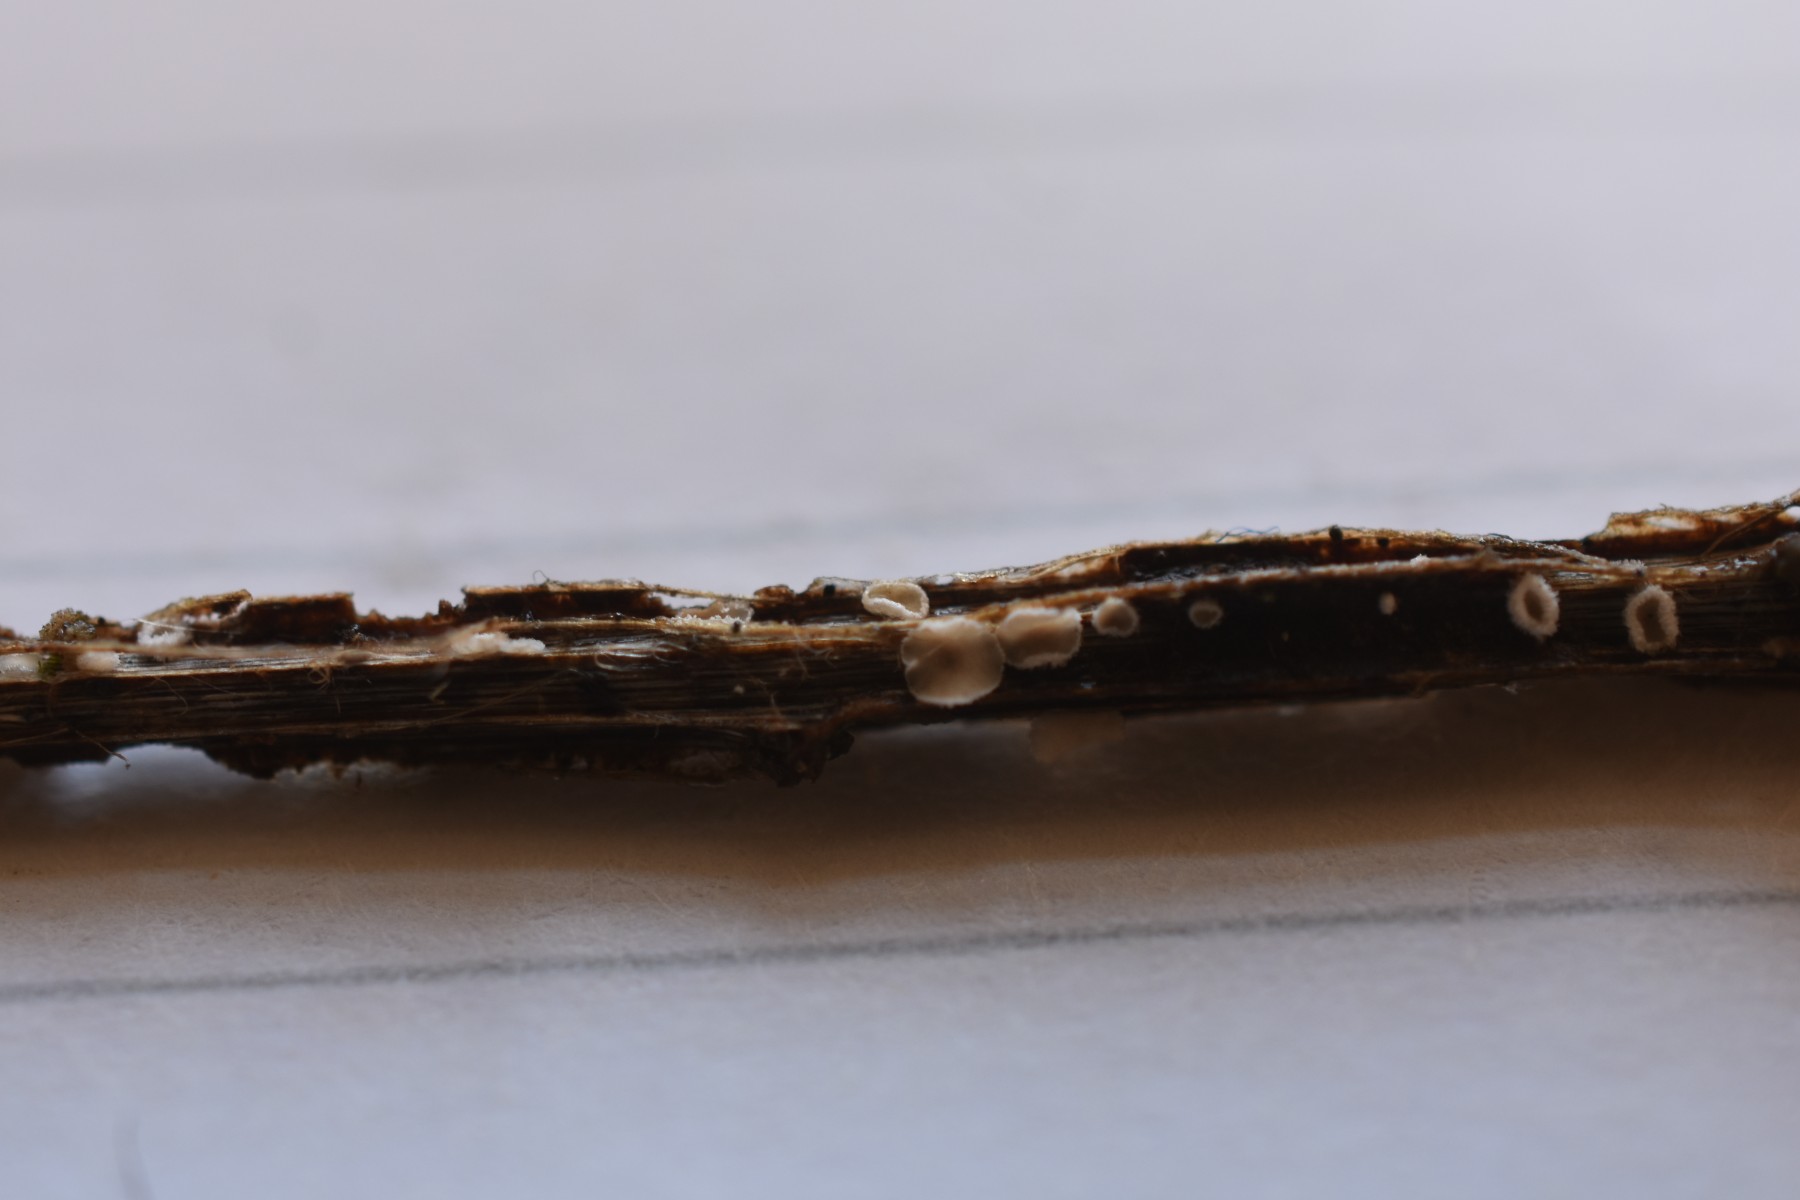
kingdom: Fungi
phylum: Basidiomycota
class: Agaricomycetes
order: Agaricales
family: Niaceae
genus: Lachnella
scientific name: Lachnella villosa
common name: hvid frynserede
